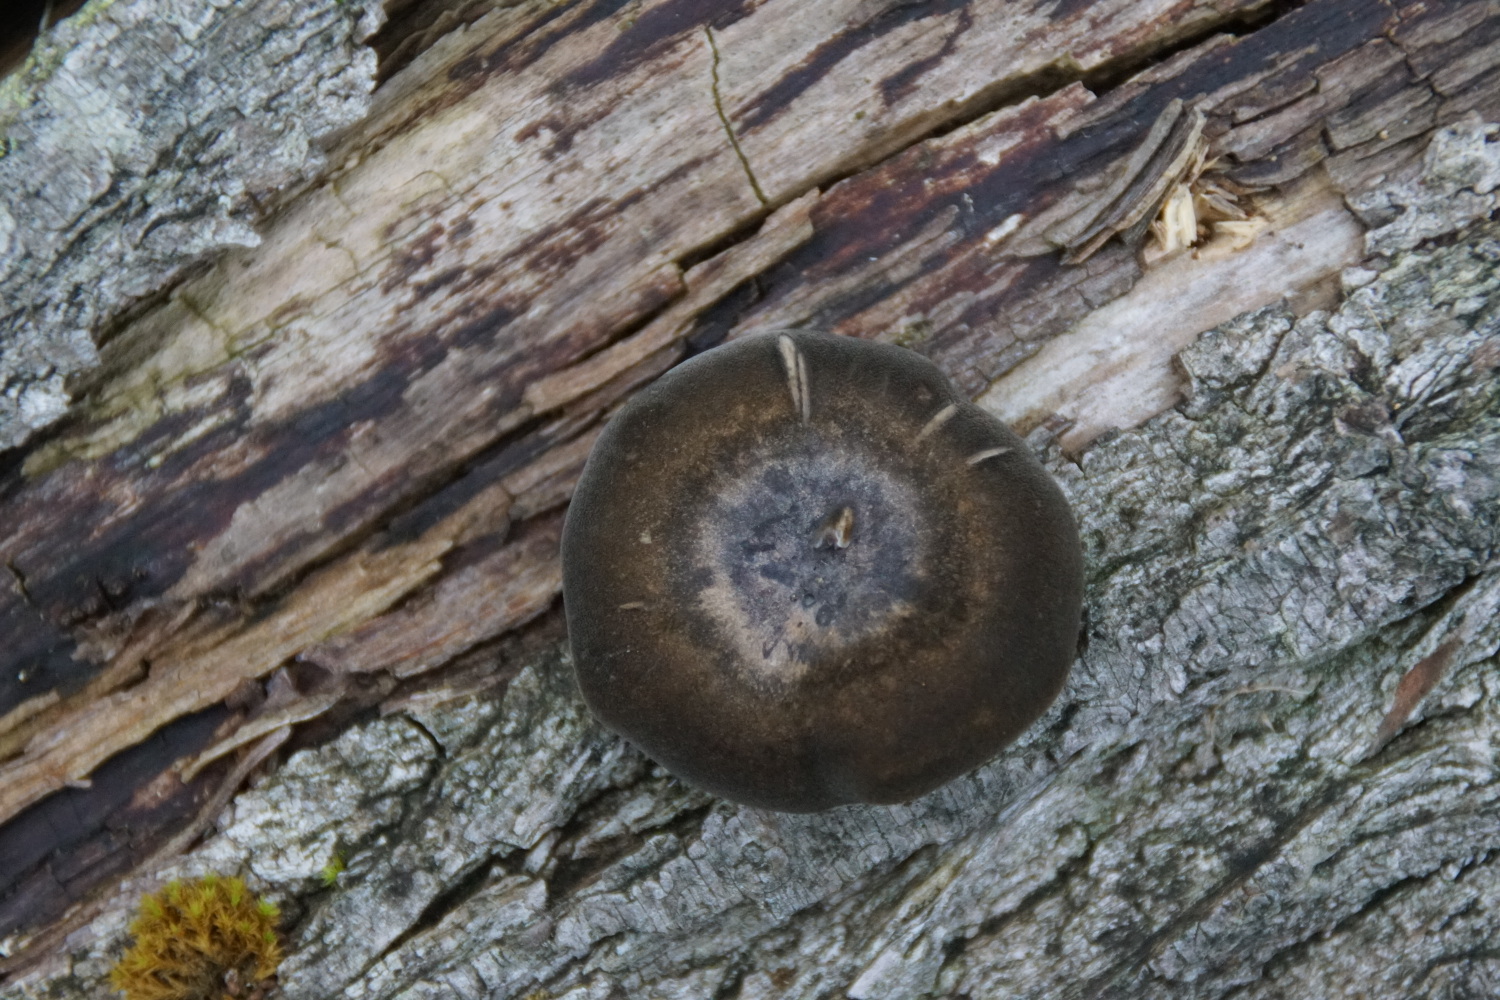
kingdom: Fungi
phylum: Basidiomycota
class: Agaricomycetes
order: Polyporales
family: Polyporaceae
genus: Lentinus
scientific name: Lentinus brumalis
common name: vinter-stilkporesvamp
